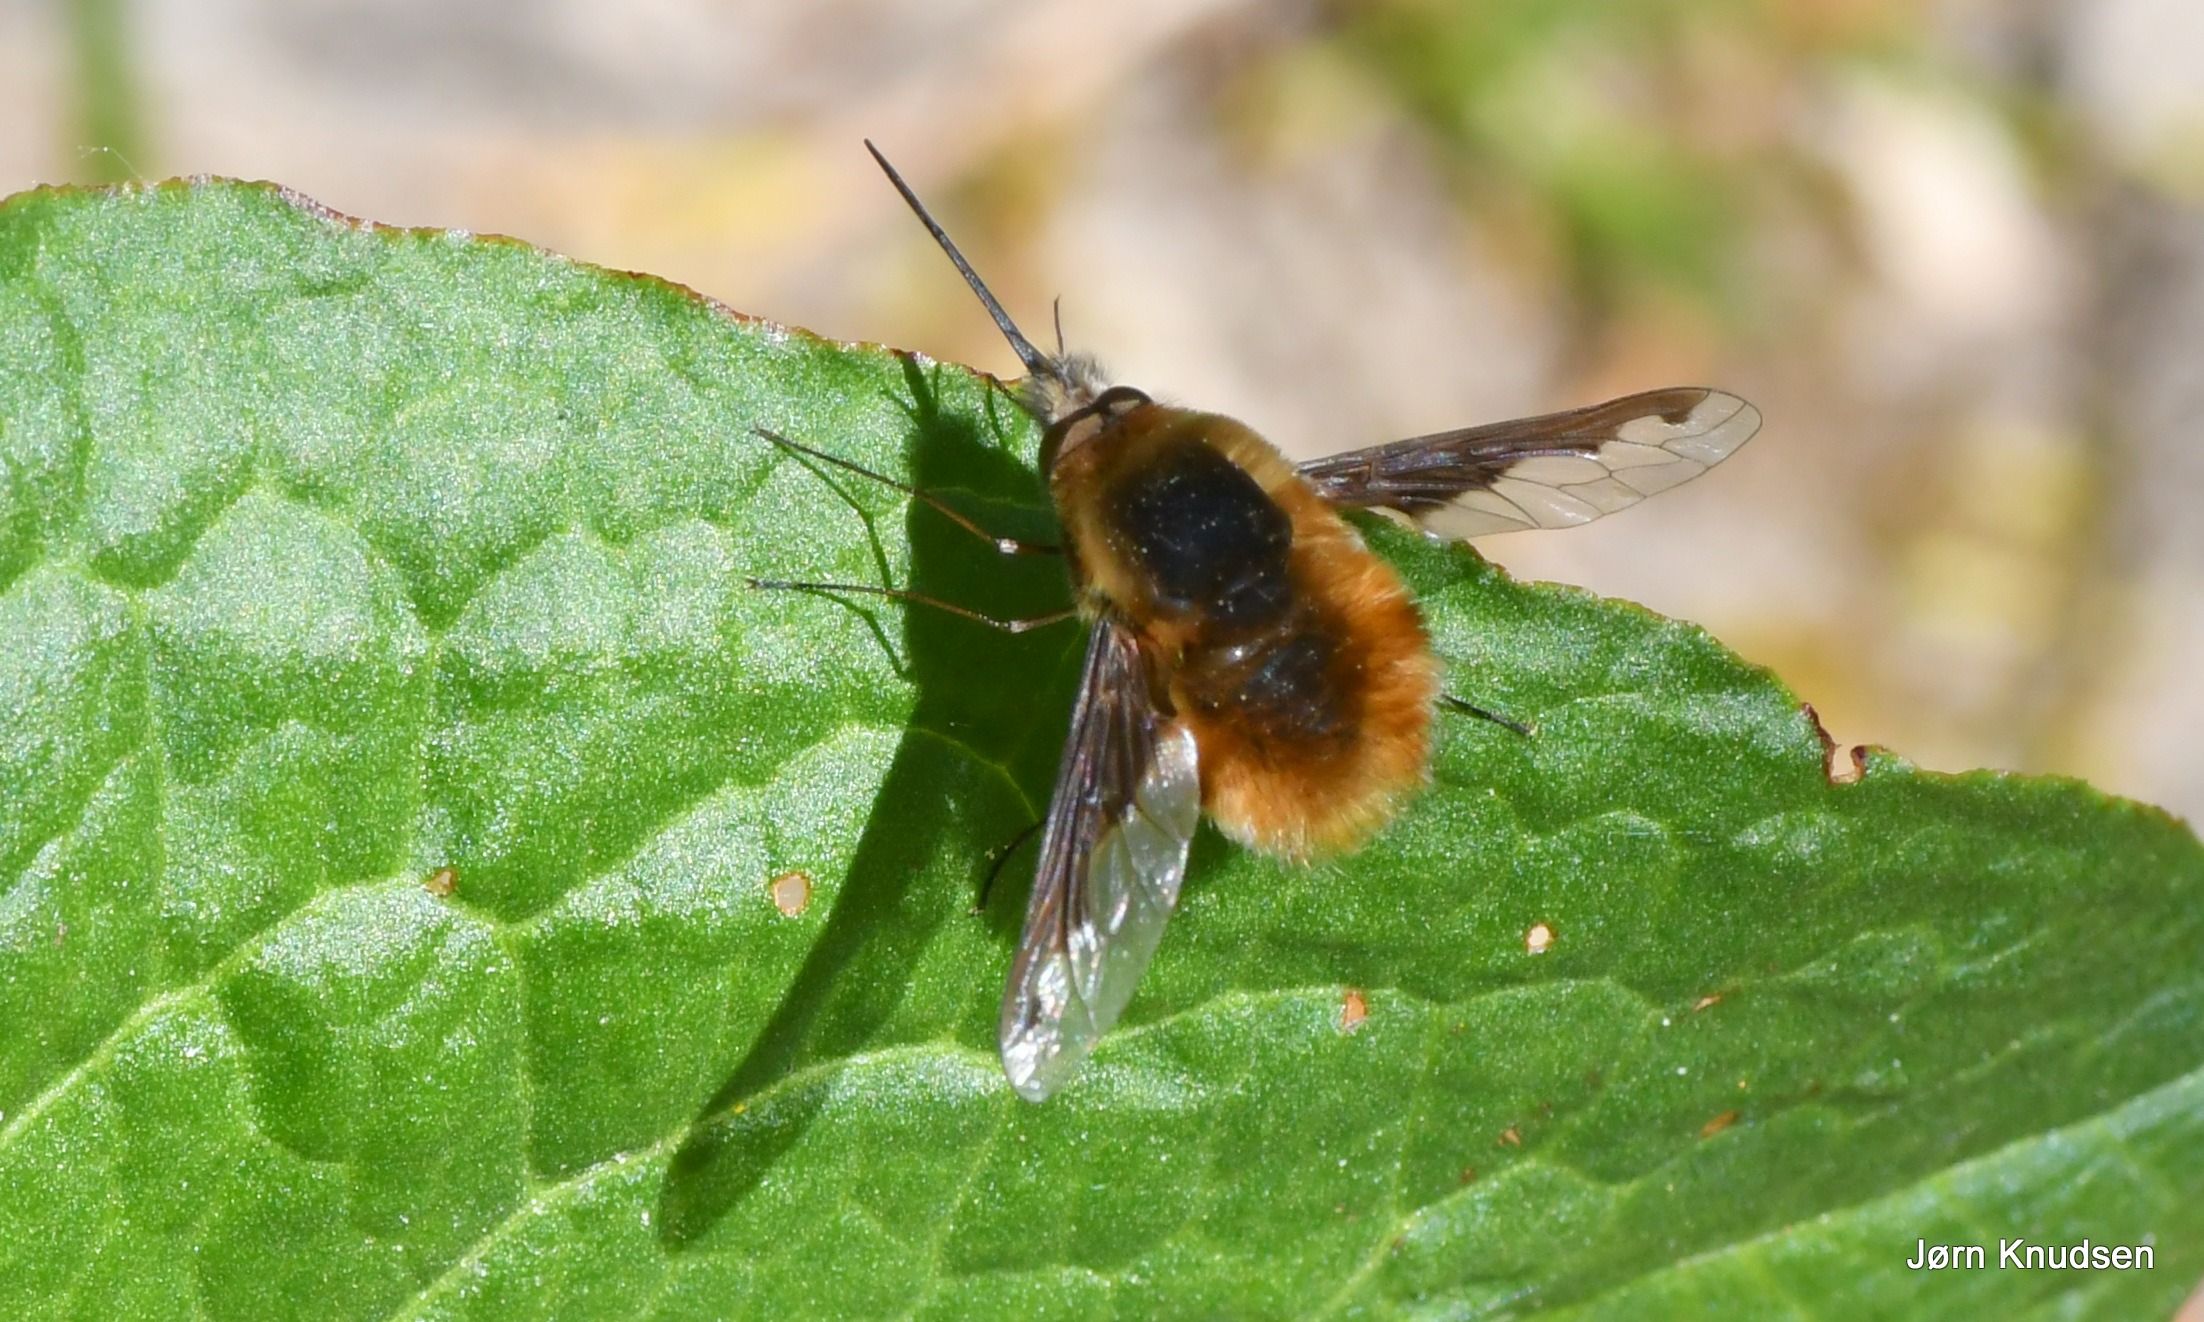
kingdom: Animalia
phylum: Arthropoda
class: Insecta
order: Diptera
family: Bombyliidae
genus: Bombylius
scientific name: Bombylius major
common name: Stor humleflue
